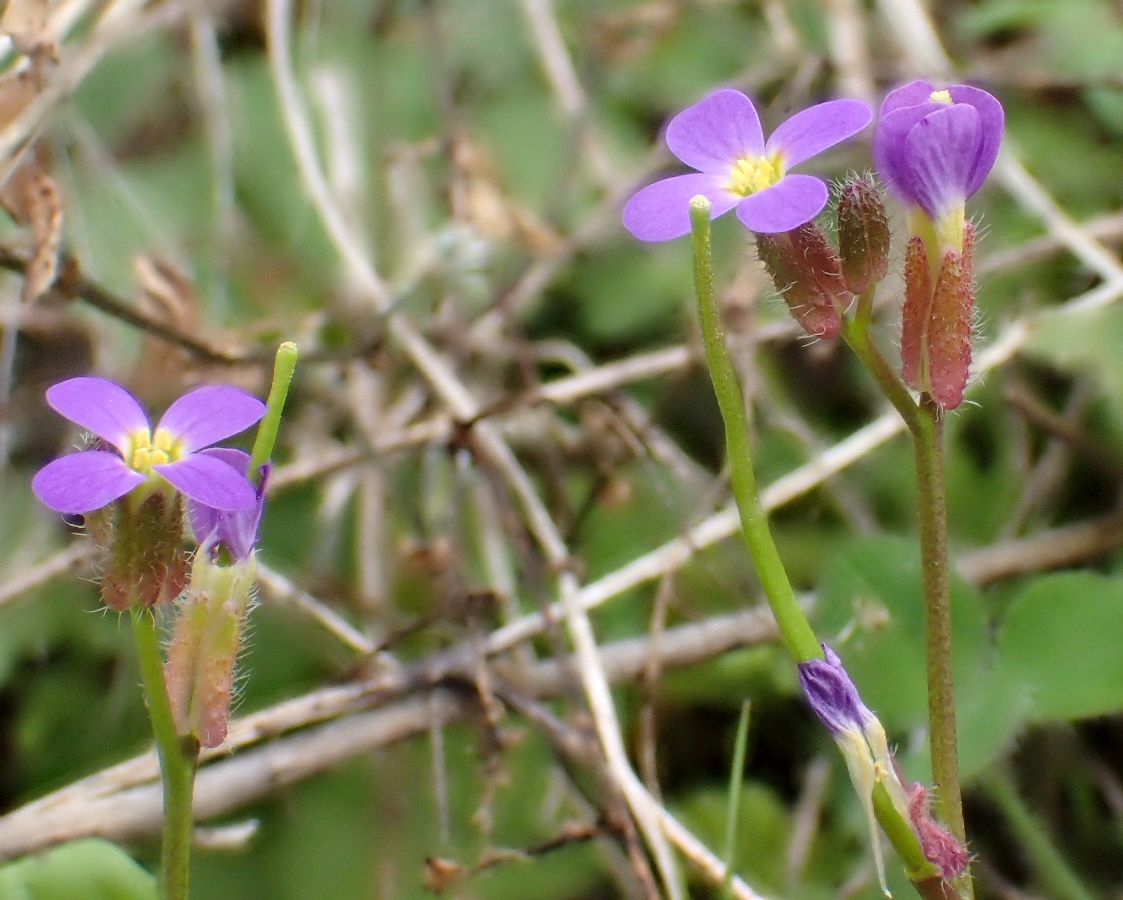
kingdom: Plantae
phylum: Tracheophyta
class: Magnoliopsida
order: Brassicales
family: Brassicaceae
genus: Arabis
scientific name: Arabis verna
